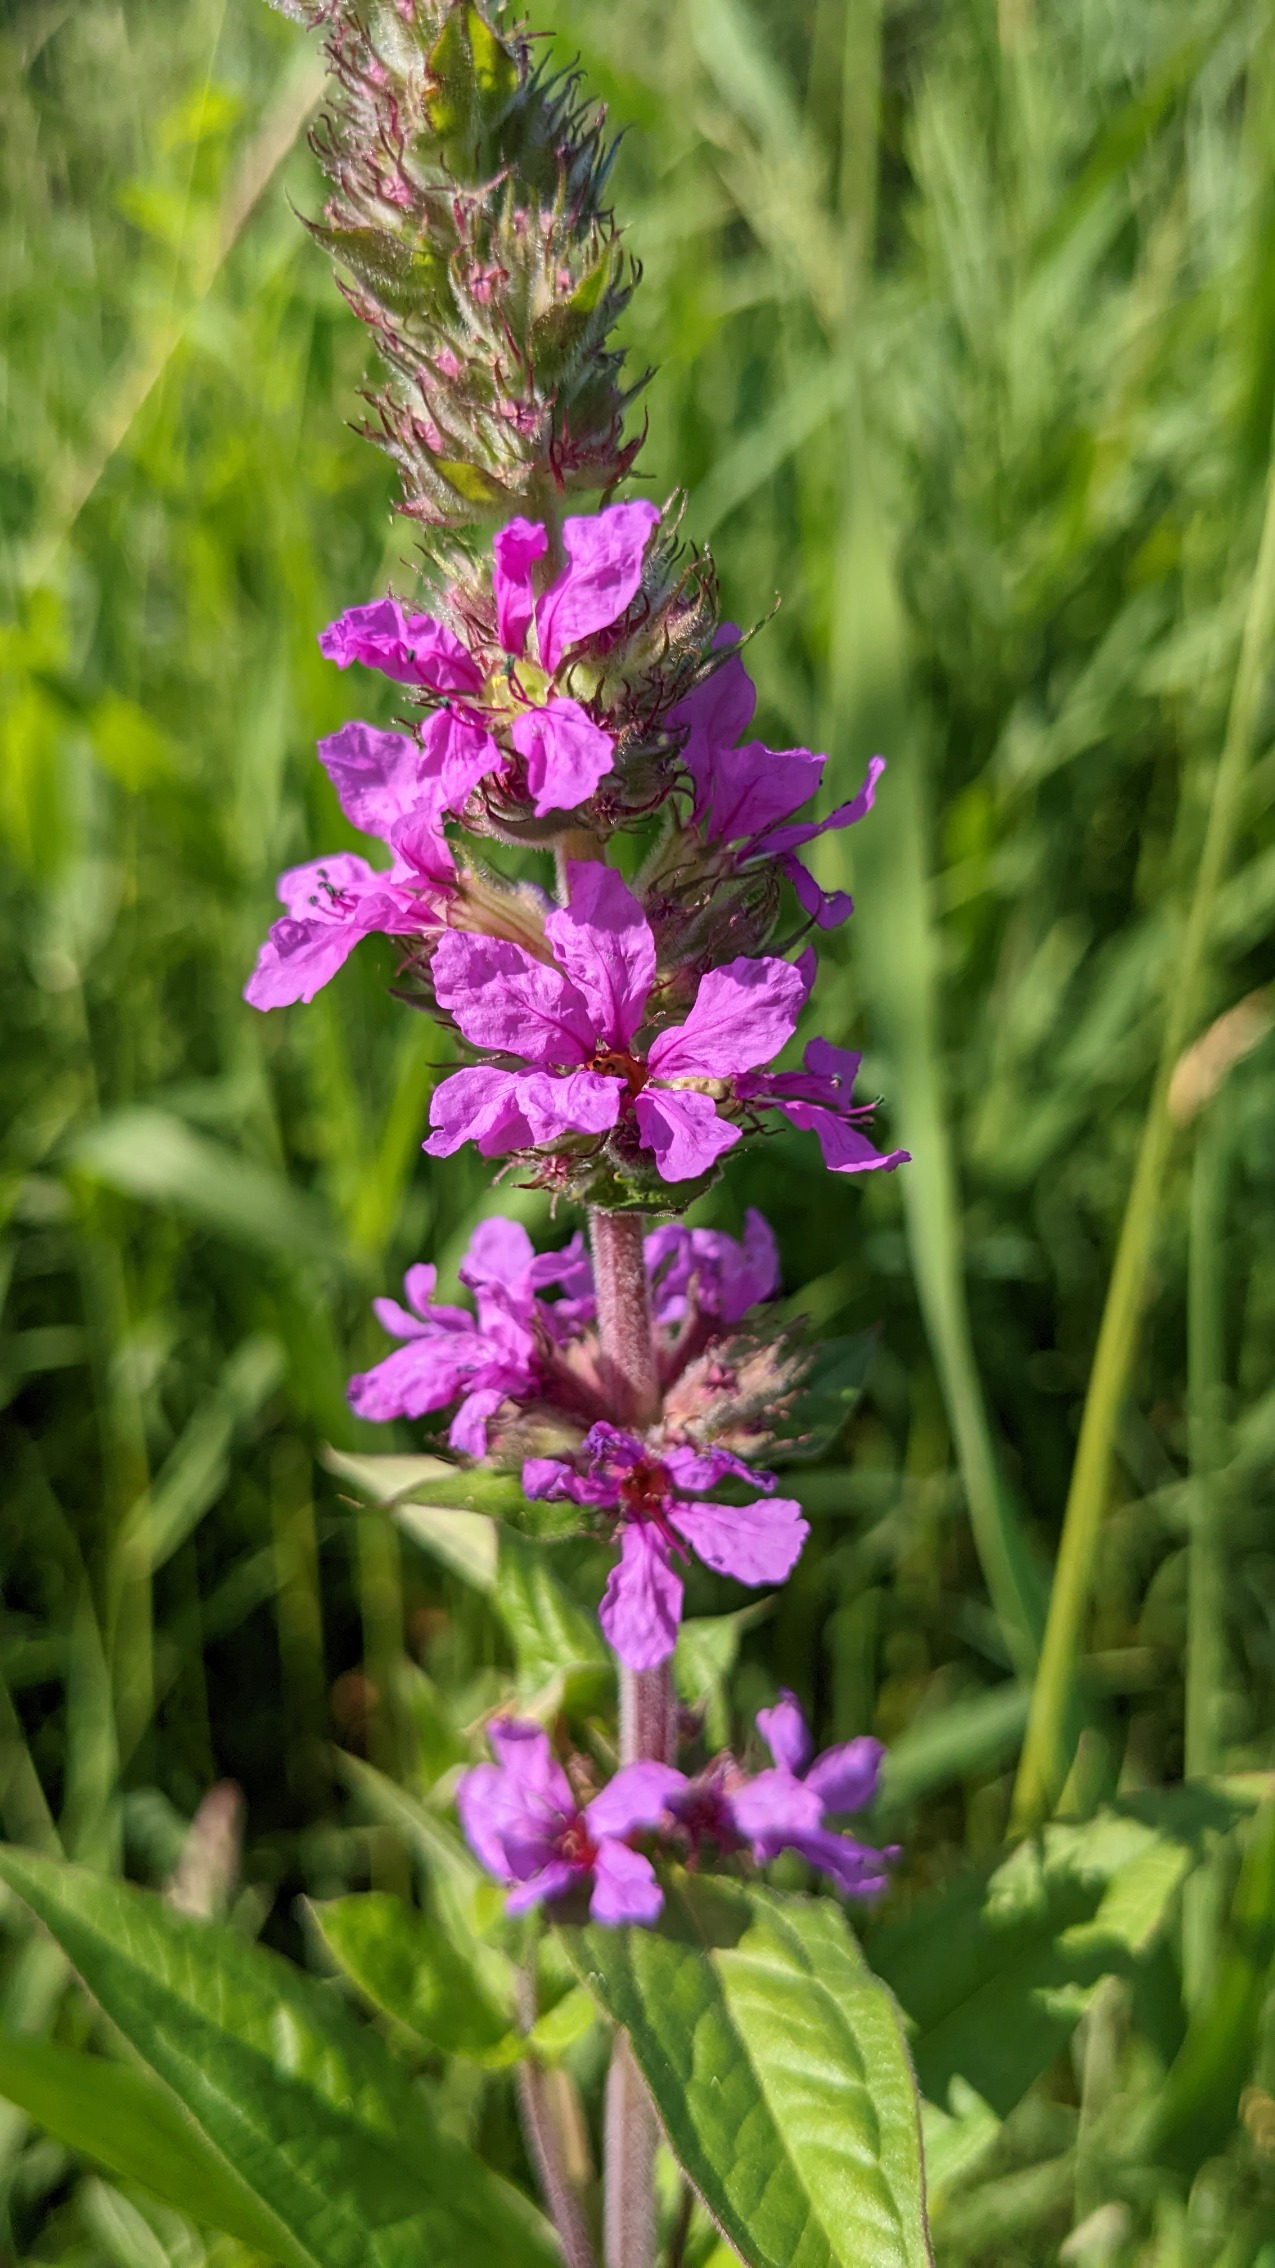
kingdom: Plantae
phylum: Tracheophyta
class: Magnoliopsida
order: Myrtales
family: Lythraceae
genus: Lythrum
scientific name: Lythrum salicaria
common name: Kattehale
